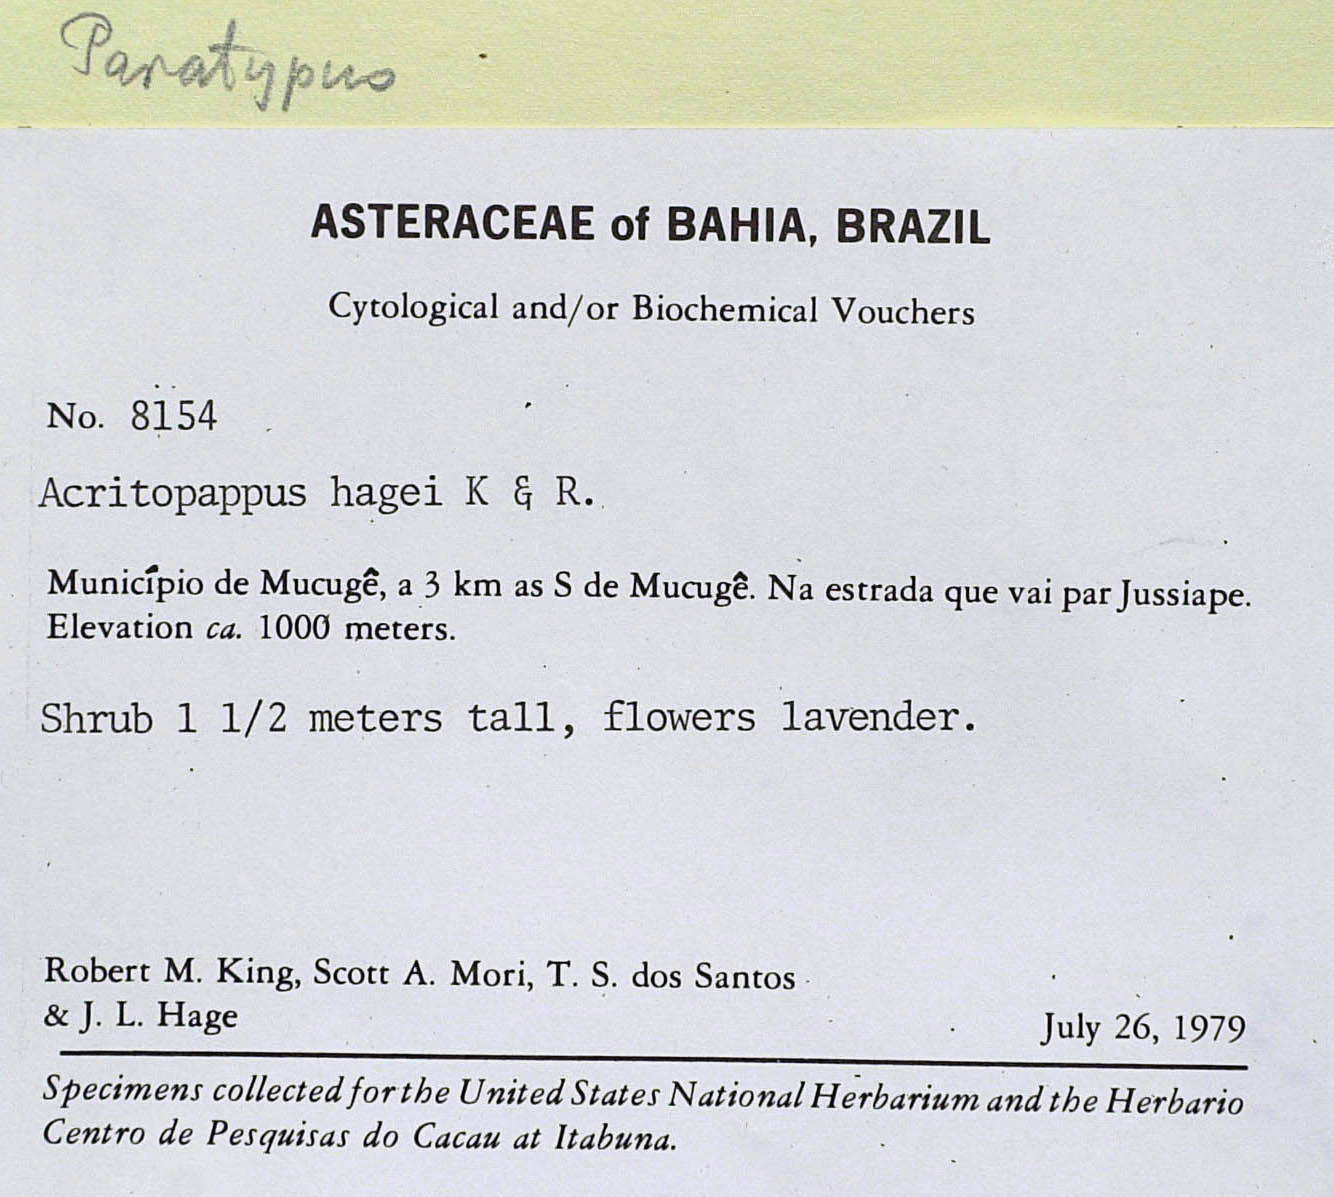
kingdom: Plantae
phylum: Tracheophyta
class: Magnoliopsida
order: Asterales
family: Asteraceae
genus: Acritopappus
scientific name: Acritopappus heterolepis
